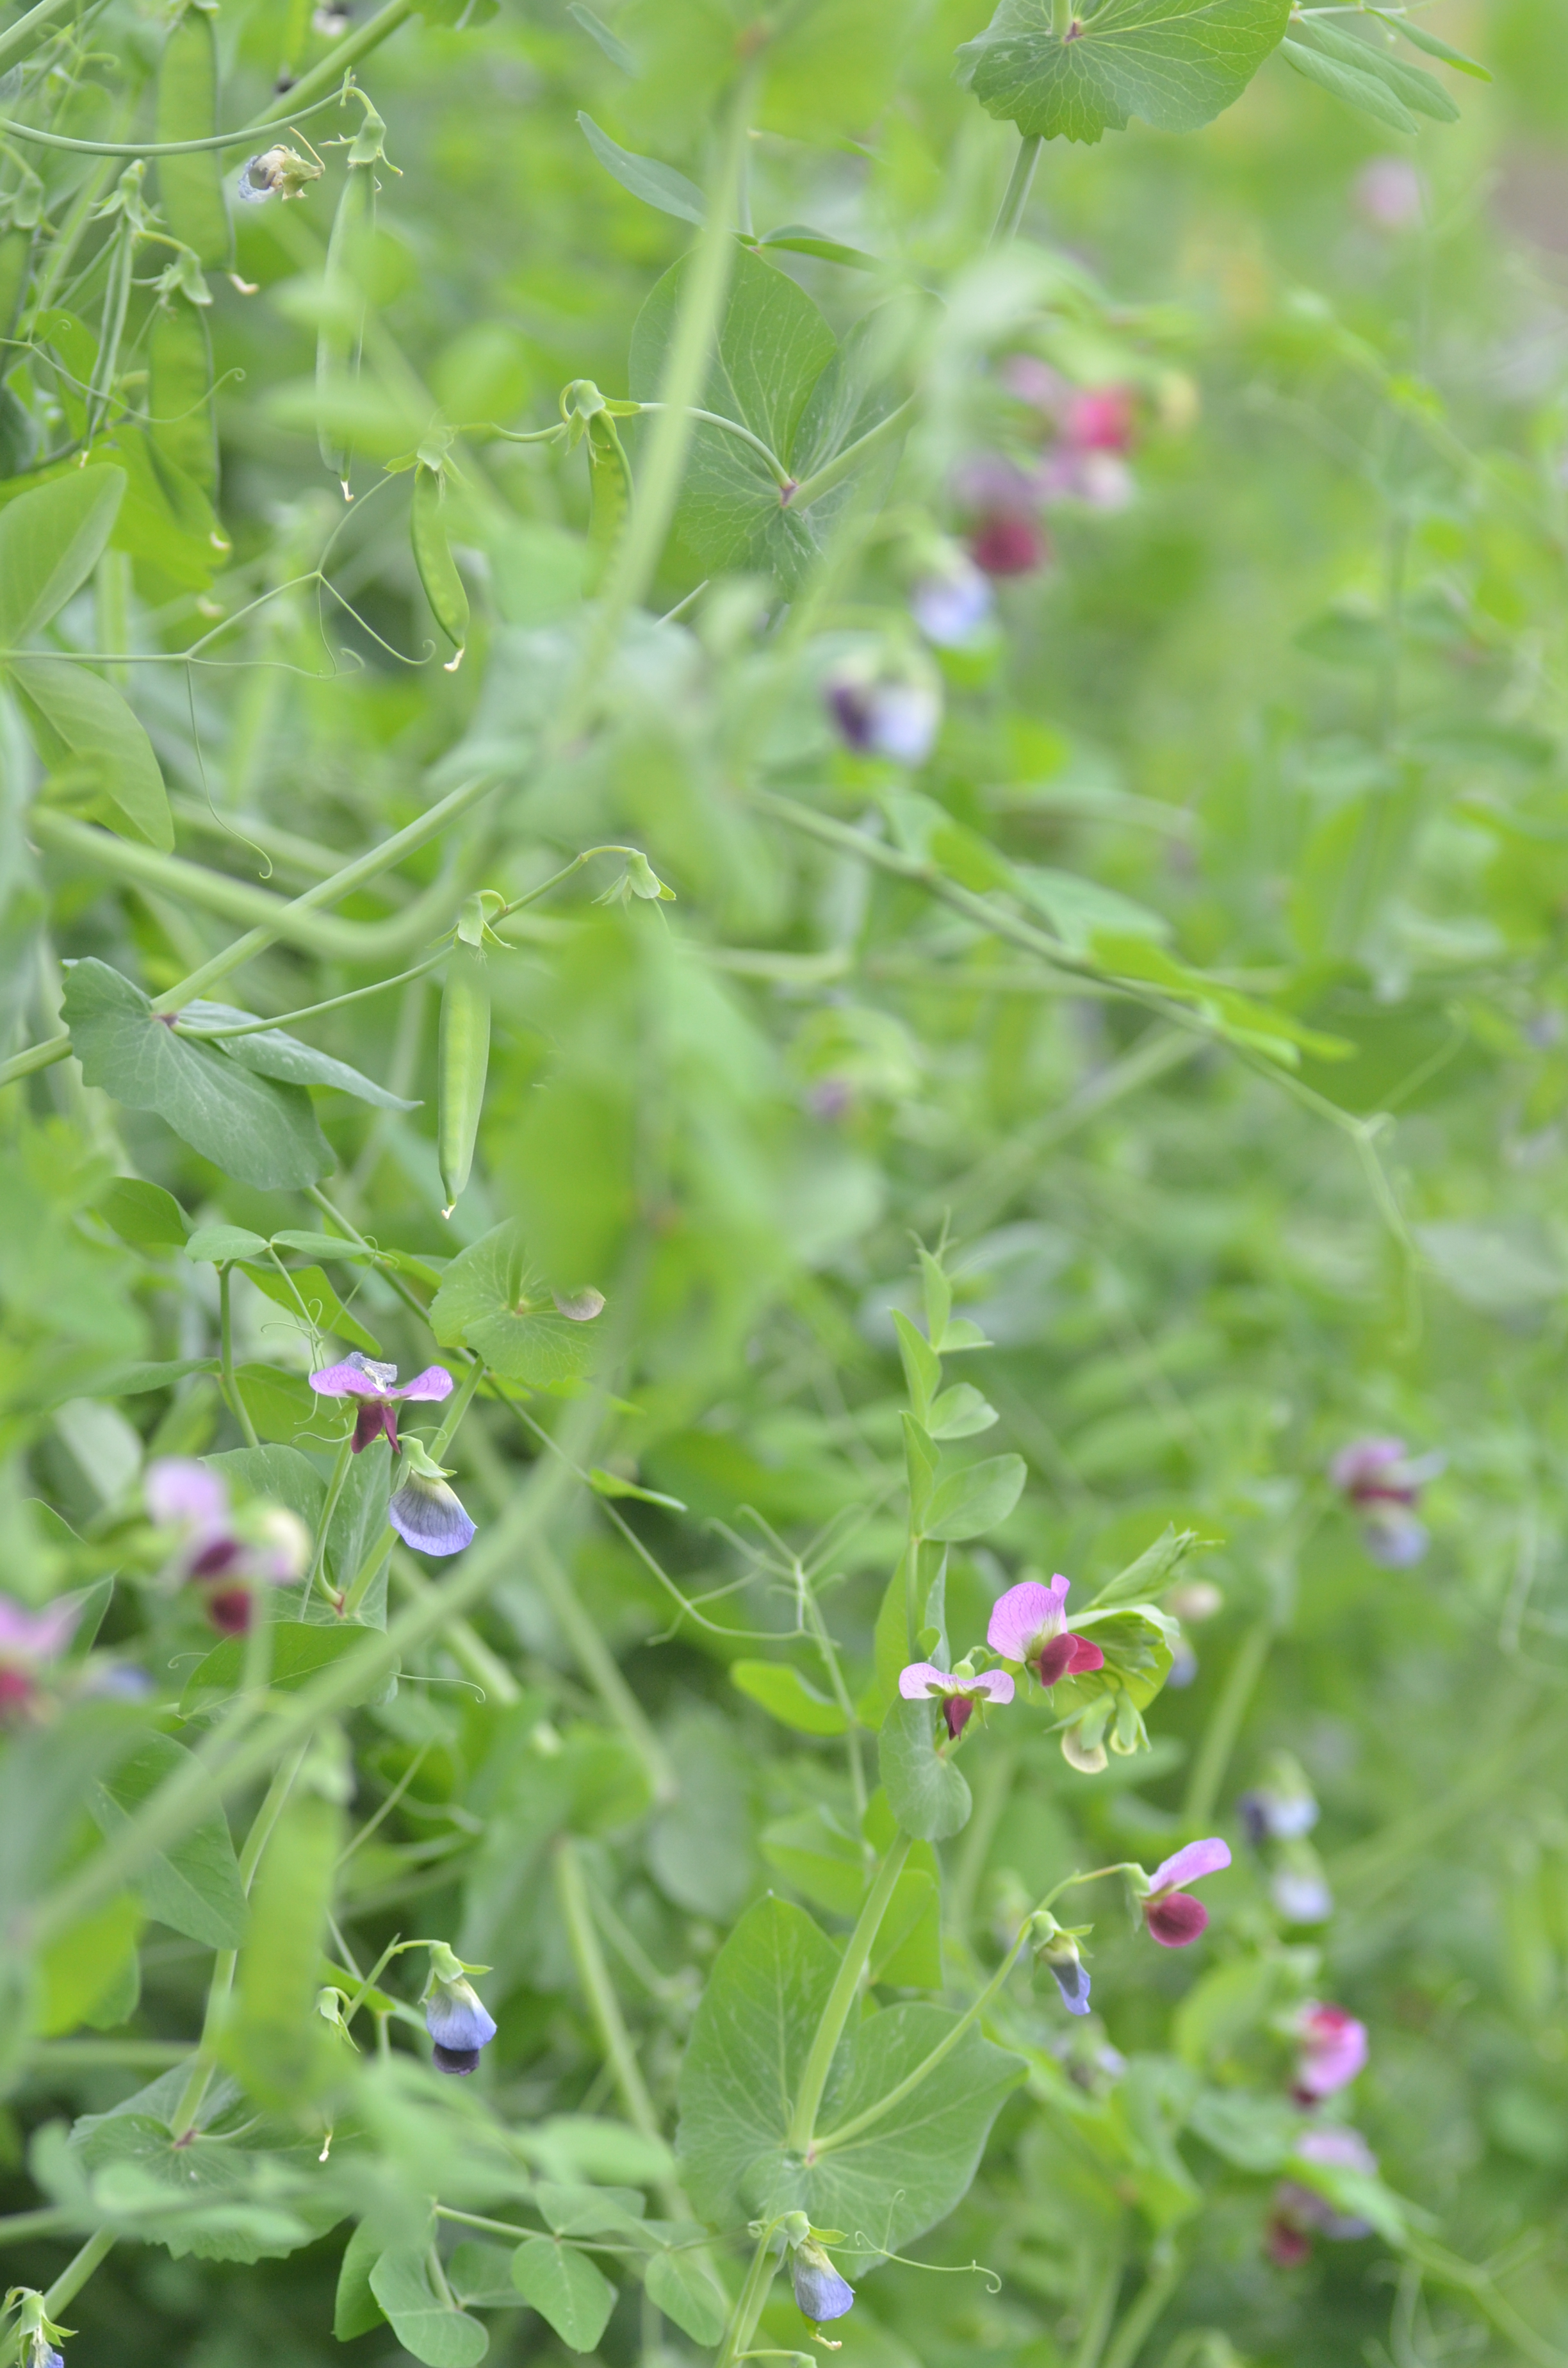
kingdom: Plantae
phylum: Tracheophyta
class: Magnoliopsida
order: Fabales
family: Fabaceae
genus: Lathyrus
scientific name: Lathyrus oleraceus
